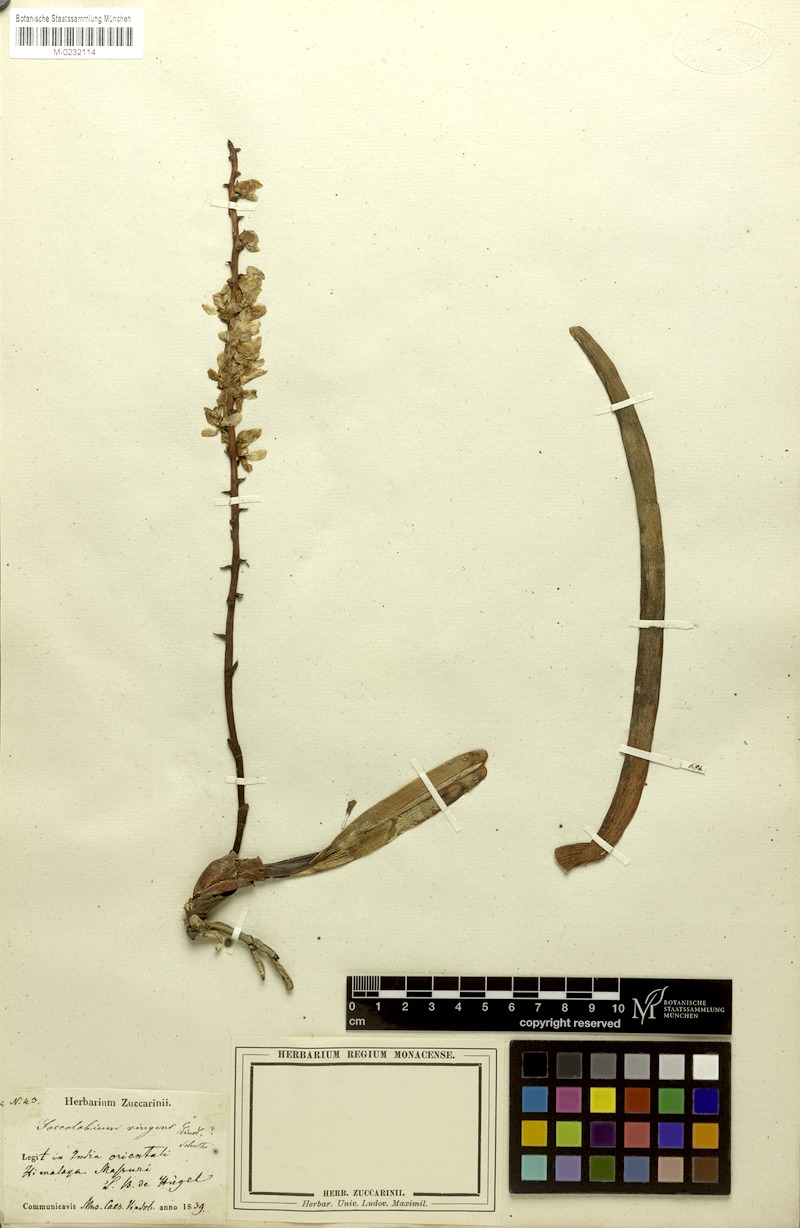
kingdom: Plantae
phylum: Tracheophyta
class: Liliopsida
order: Asparagales
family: Orchidaceae
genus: Aerides
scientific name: Aerides ringens
